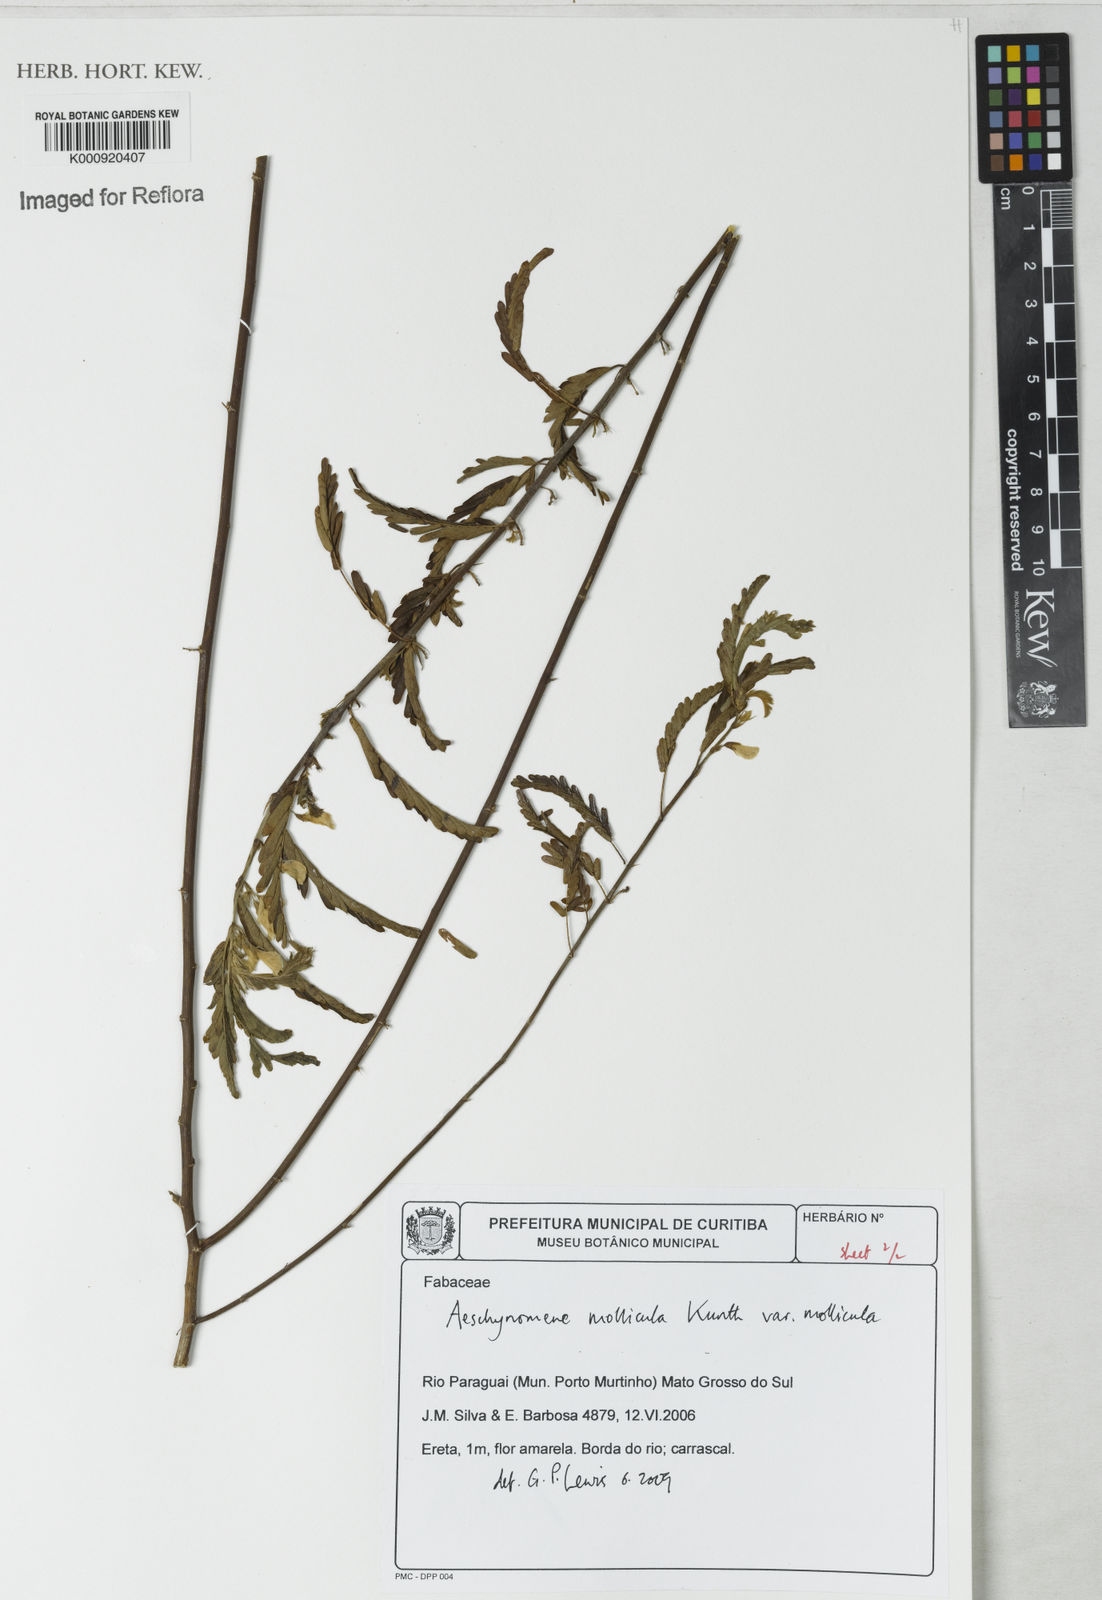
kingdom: Plantae
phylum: Tracheophyta
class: Magnoliopsida
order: Fabales
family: Fabaceae
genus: Ctenodon
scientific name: Ctenodon molliculus
